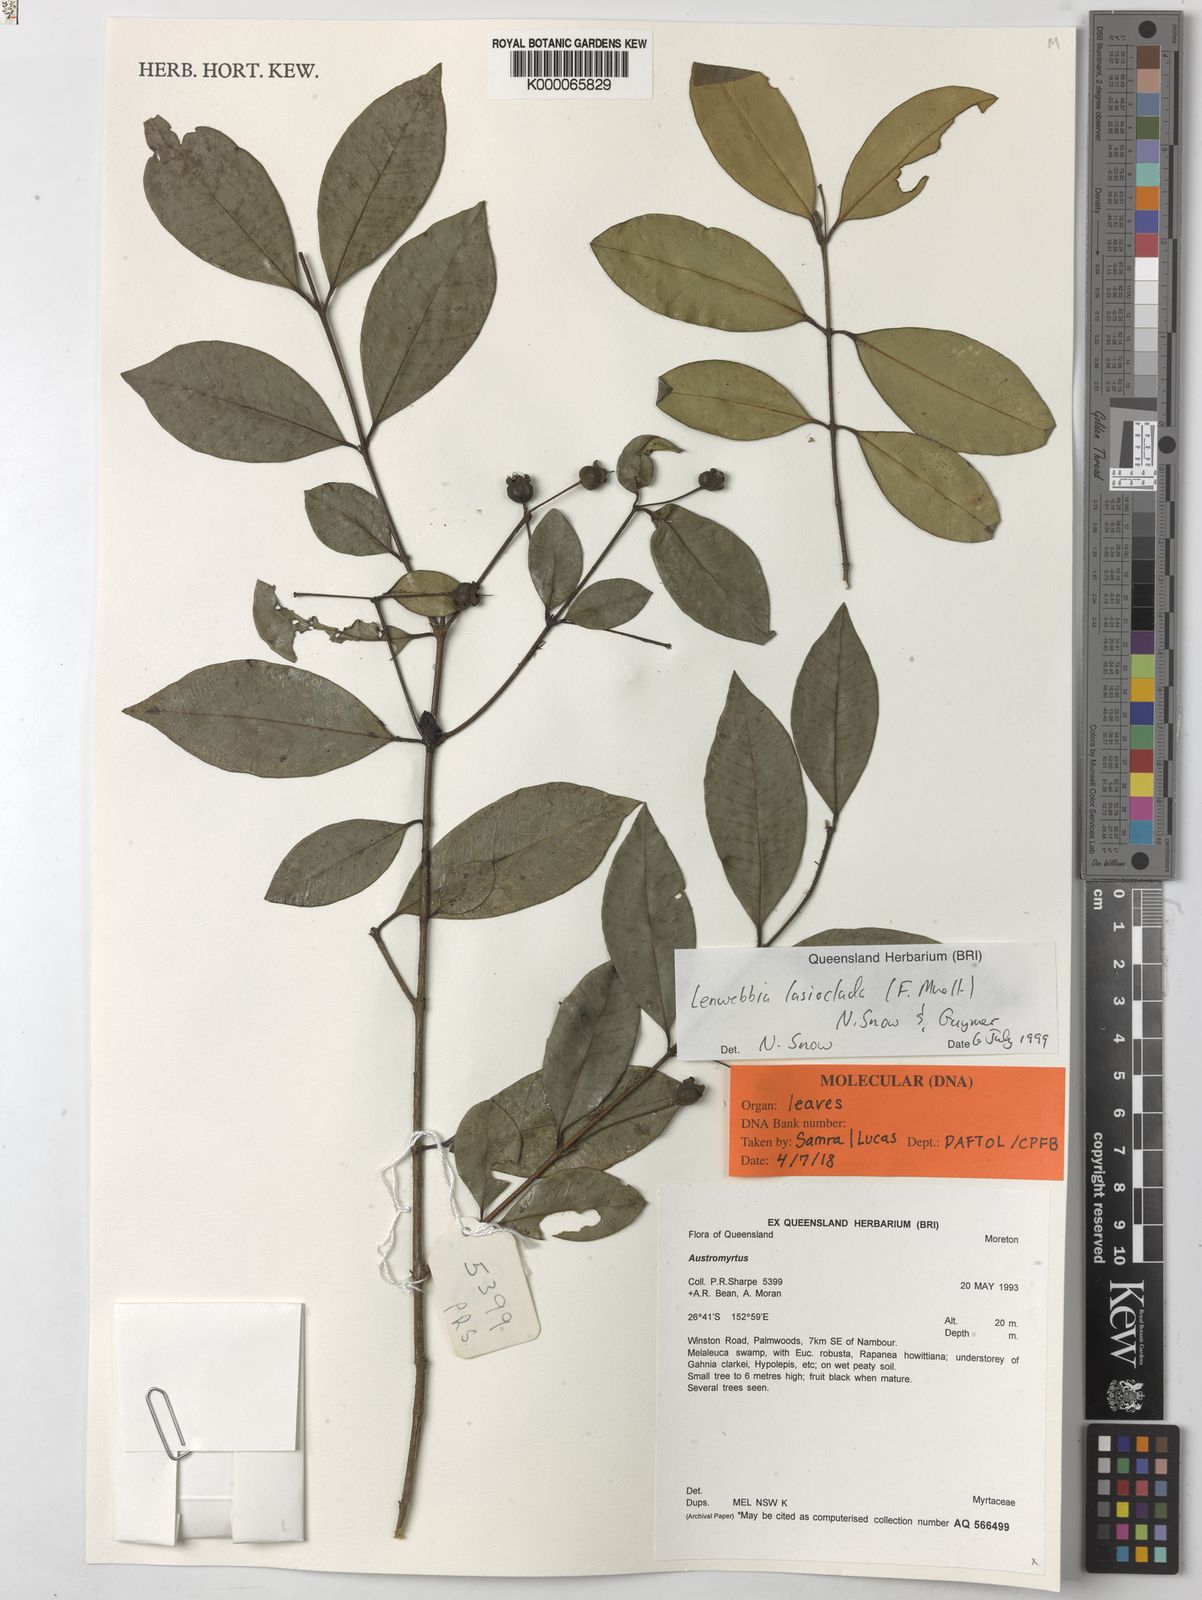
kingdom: Plantae
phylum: Tracheophyta
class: Magnoliopsida
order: Myrtales
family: Myrtaceae
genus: Lenwebbia
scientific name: Lenwebbia
